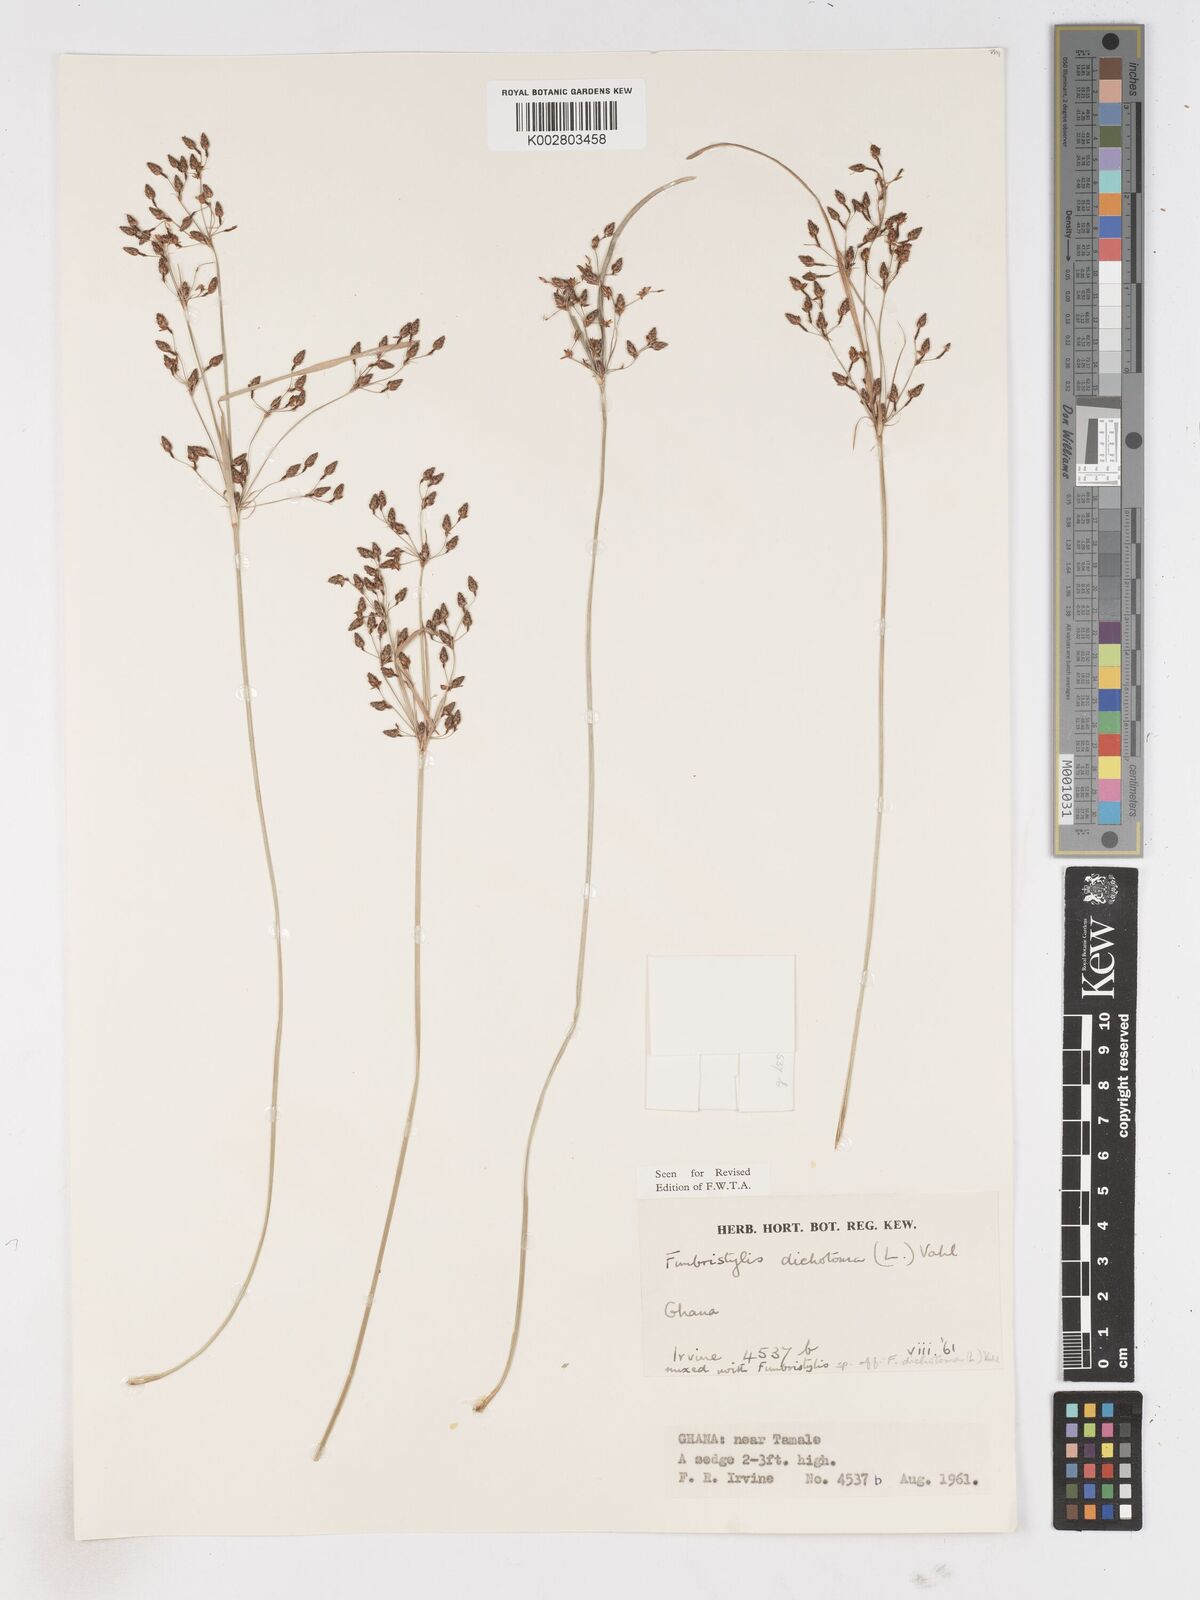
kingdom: Plantae
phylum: Tracheophyta
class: Liliopsida
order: Poales
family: Cyperaceae
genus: Fimbristylis
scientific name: Fimbristylis dichotoma
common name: Forked fimbry
